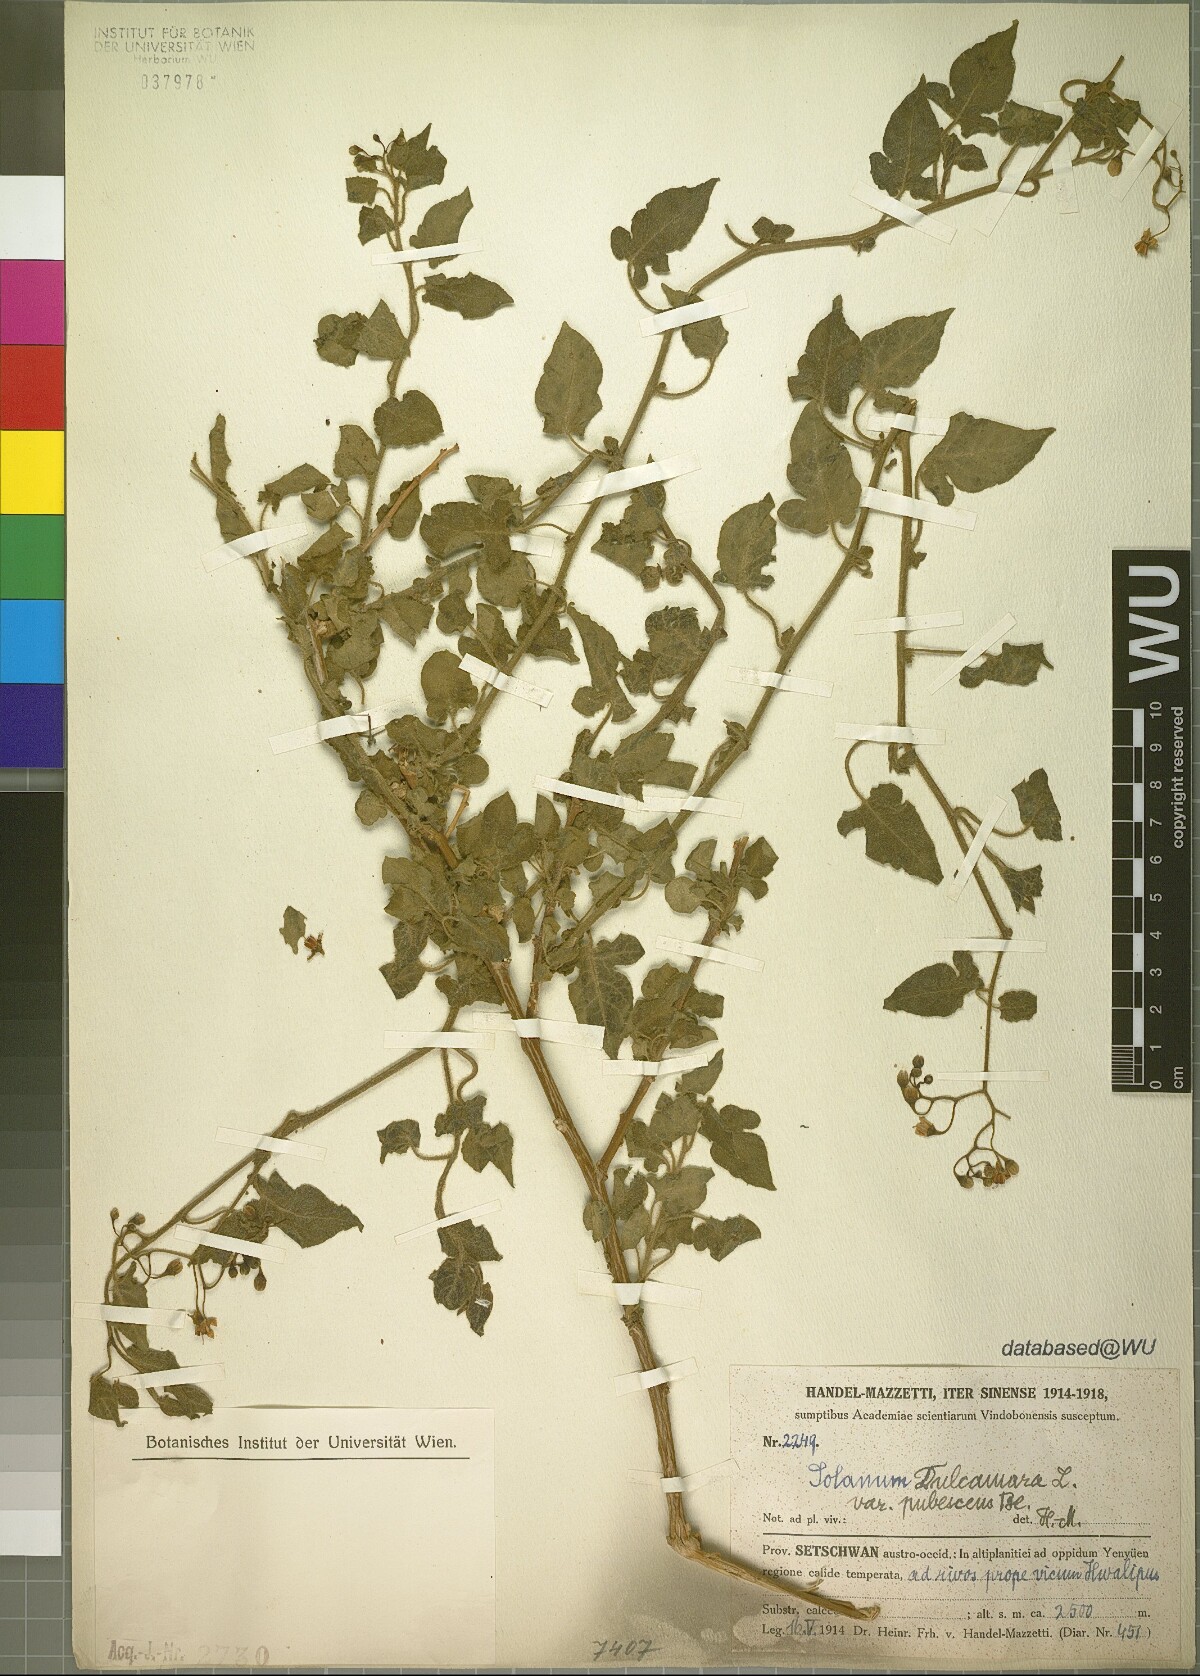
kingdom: Plantae
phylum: Tracheophyta
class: Magnoliopsida
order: Solanales
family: Solanaceae
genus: Solanum
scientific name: Solanum lyratum
